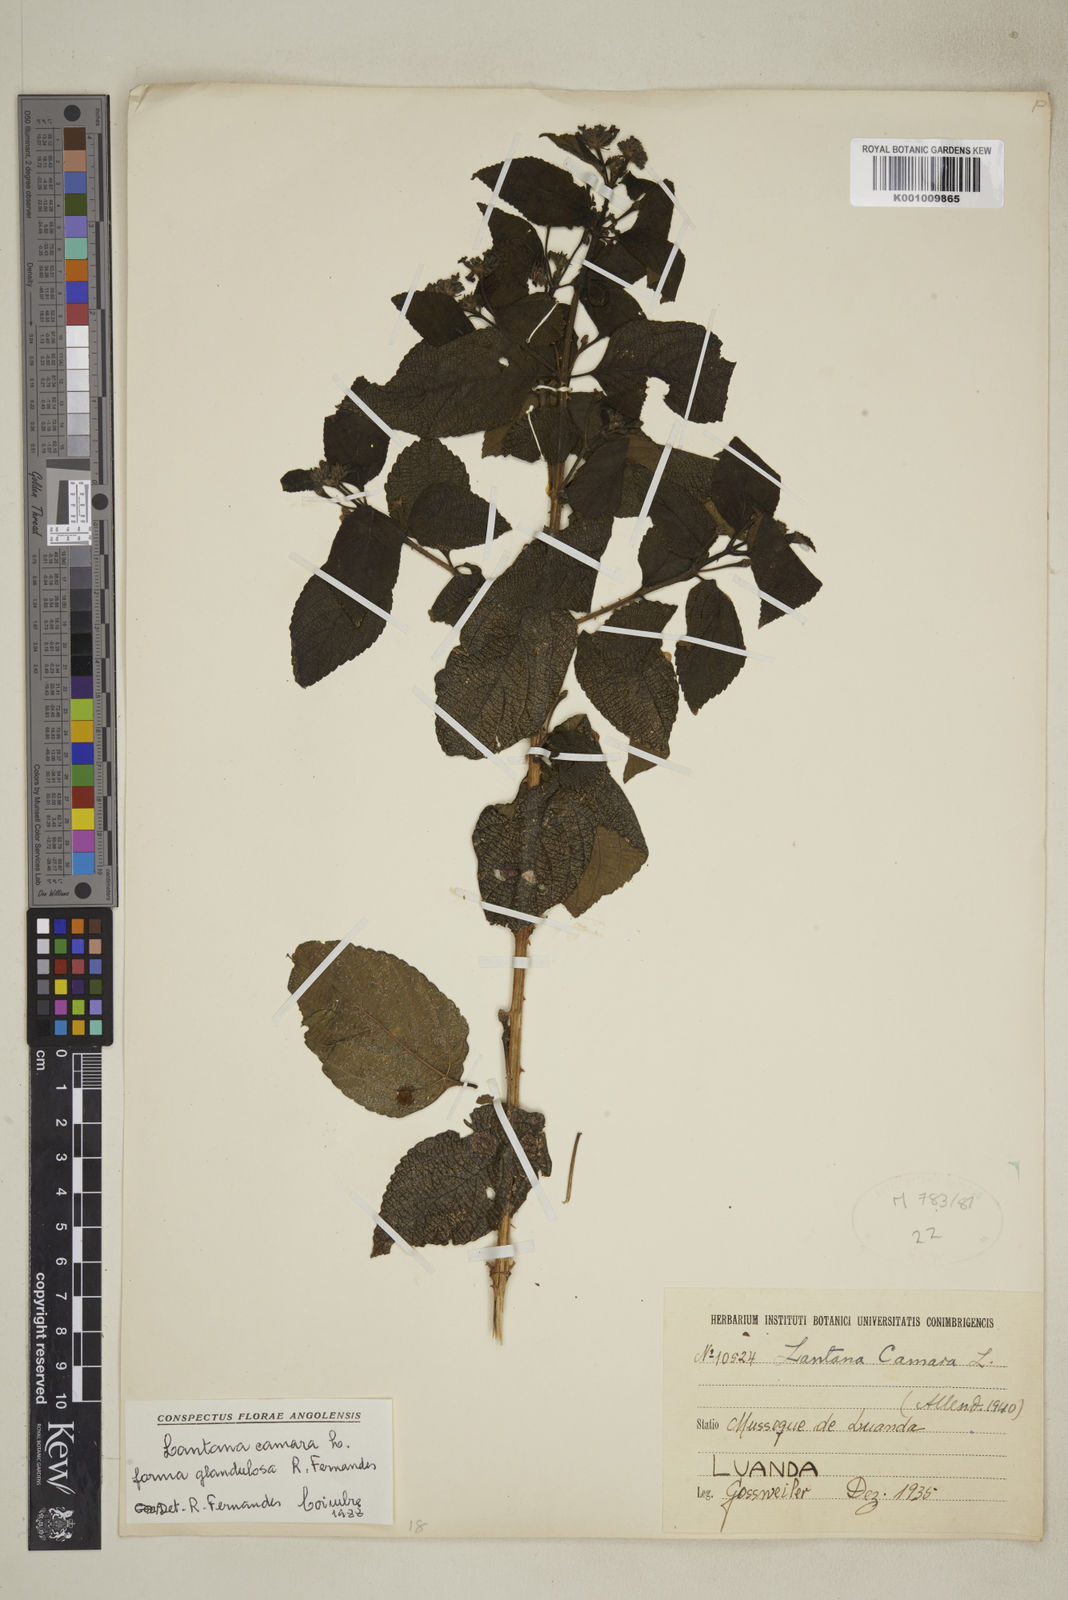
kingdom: Plantae
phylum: Tracheophyta
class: Magnoliopsida
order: Lamiales
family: Verbenaceae
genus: Lantana
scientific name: Lantana camara
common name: Lantana
